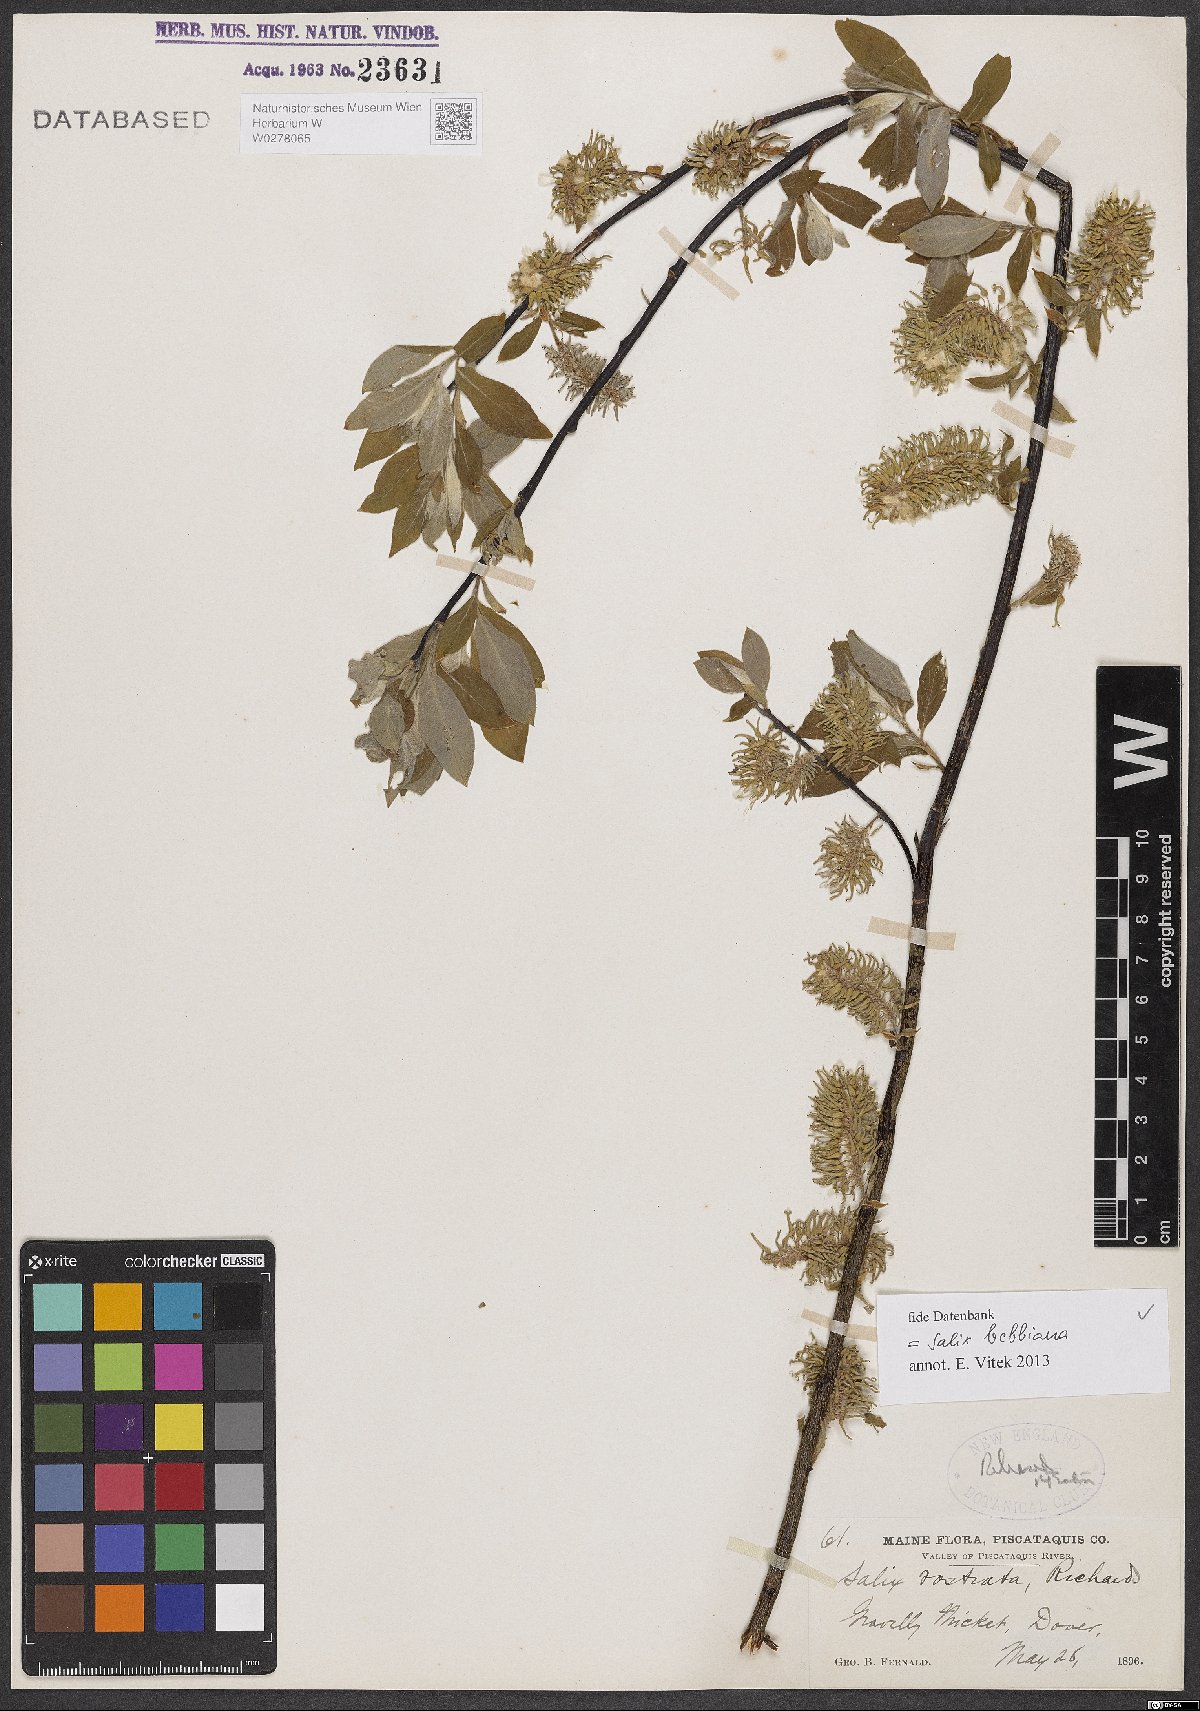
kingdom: Plantae
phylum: Tracheophyta
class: Magnoliopsida
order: Malpighiales
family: Salicaceae
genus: Salix
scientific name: Salix bebbiana
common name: Bebb's willow
